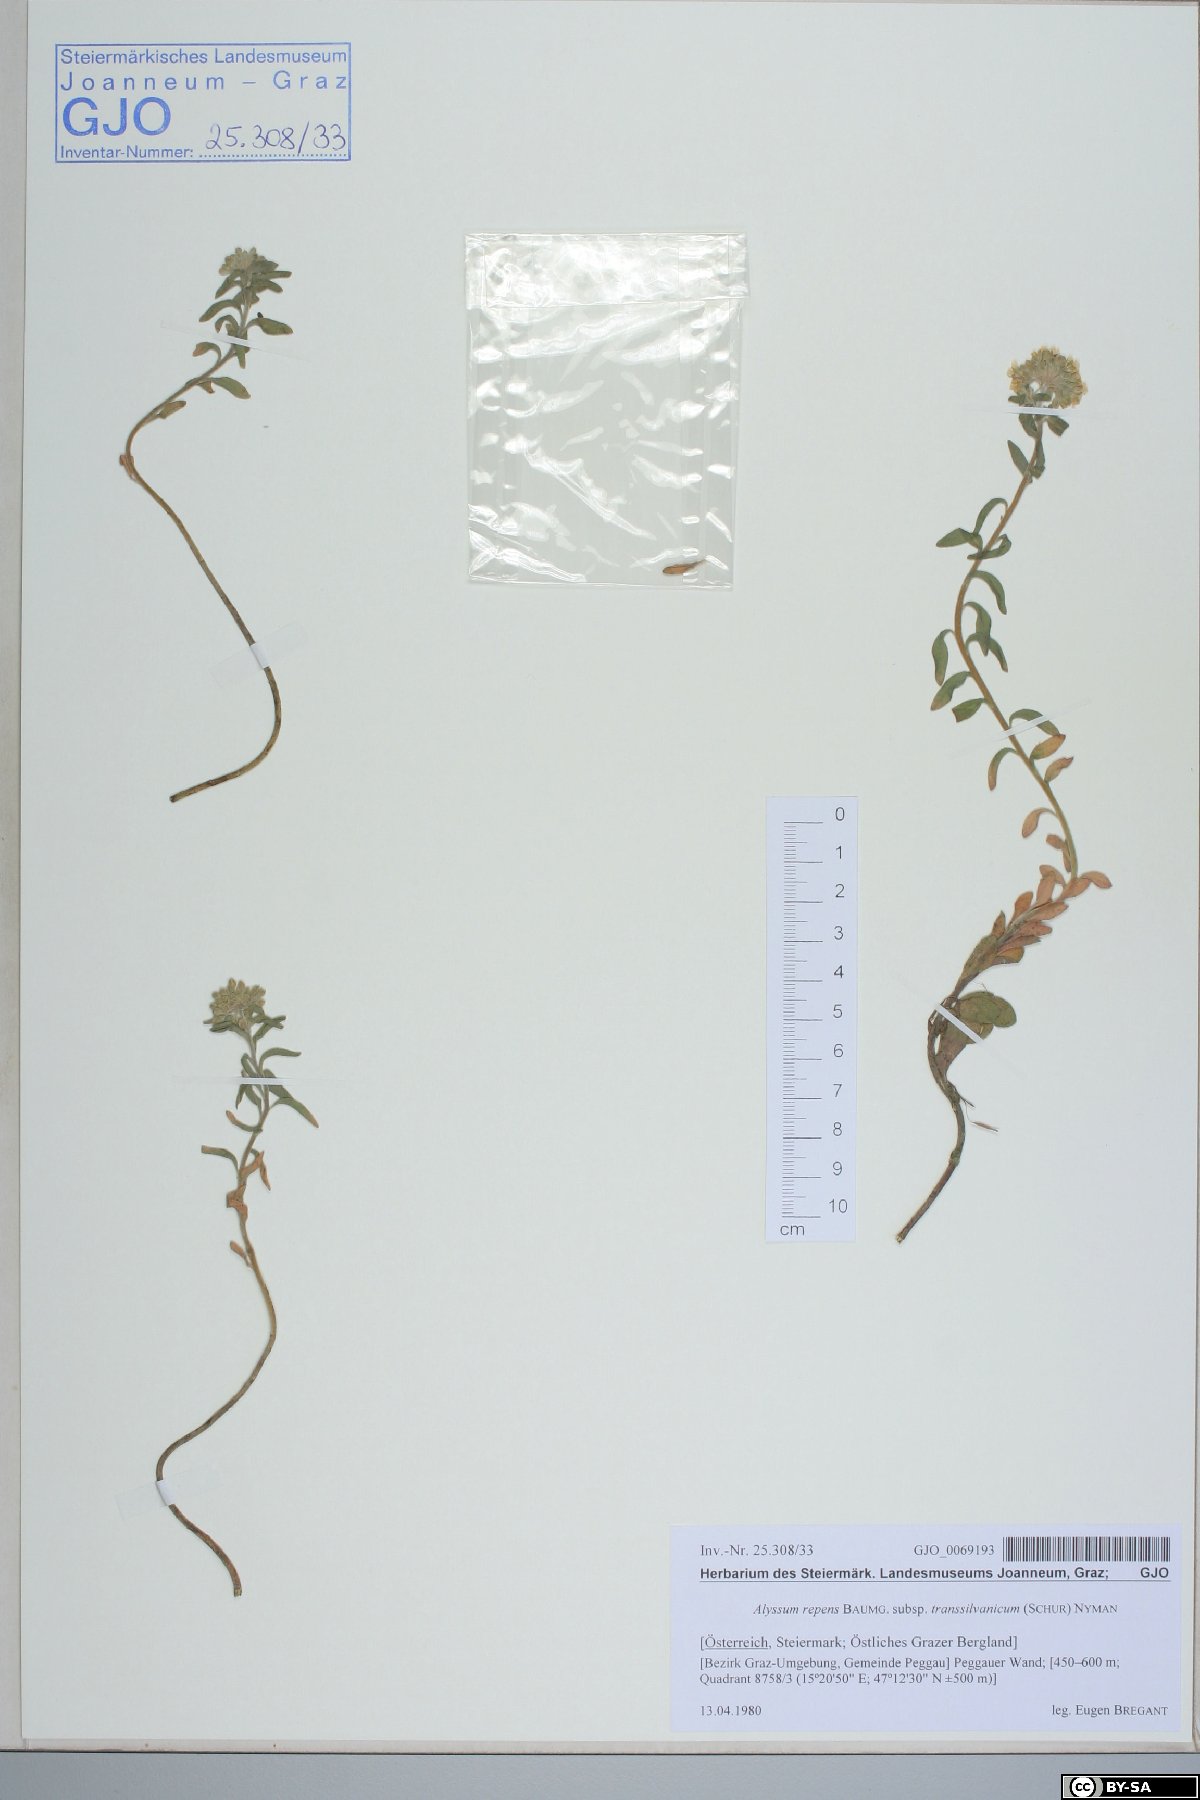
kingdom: Plantae
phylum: Tracheophyta
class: Magnoliopsida
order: Brassicales
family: Brassicaceae
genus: Alyssum
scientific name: Alyssum repens
